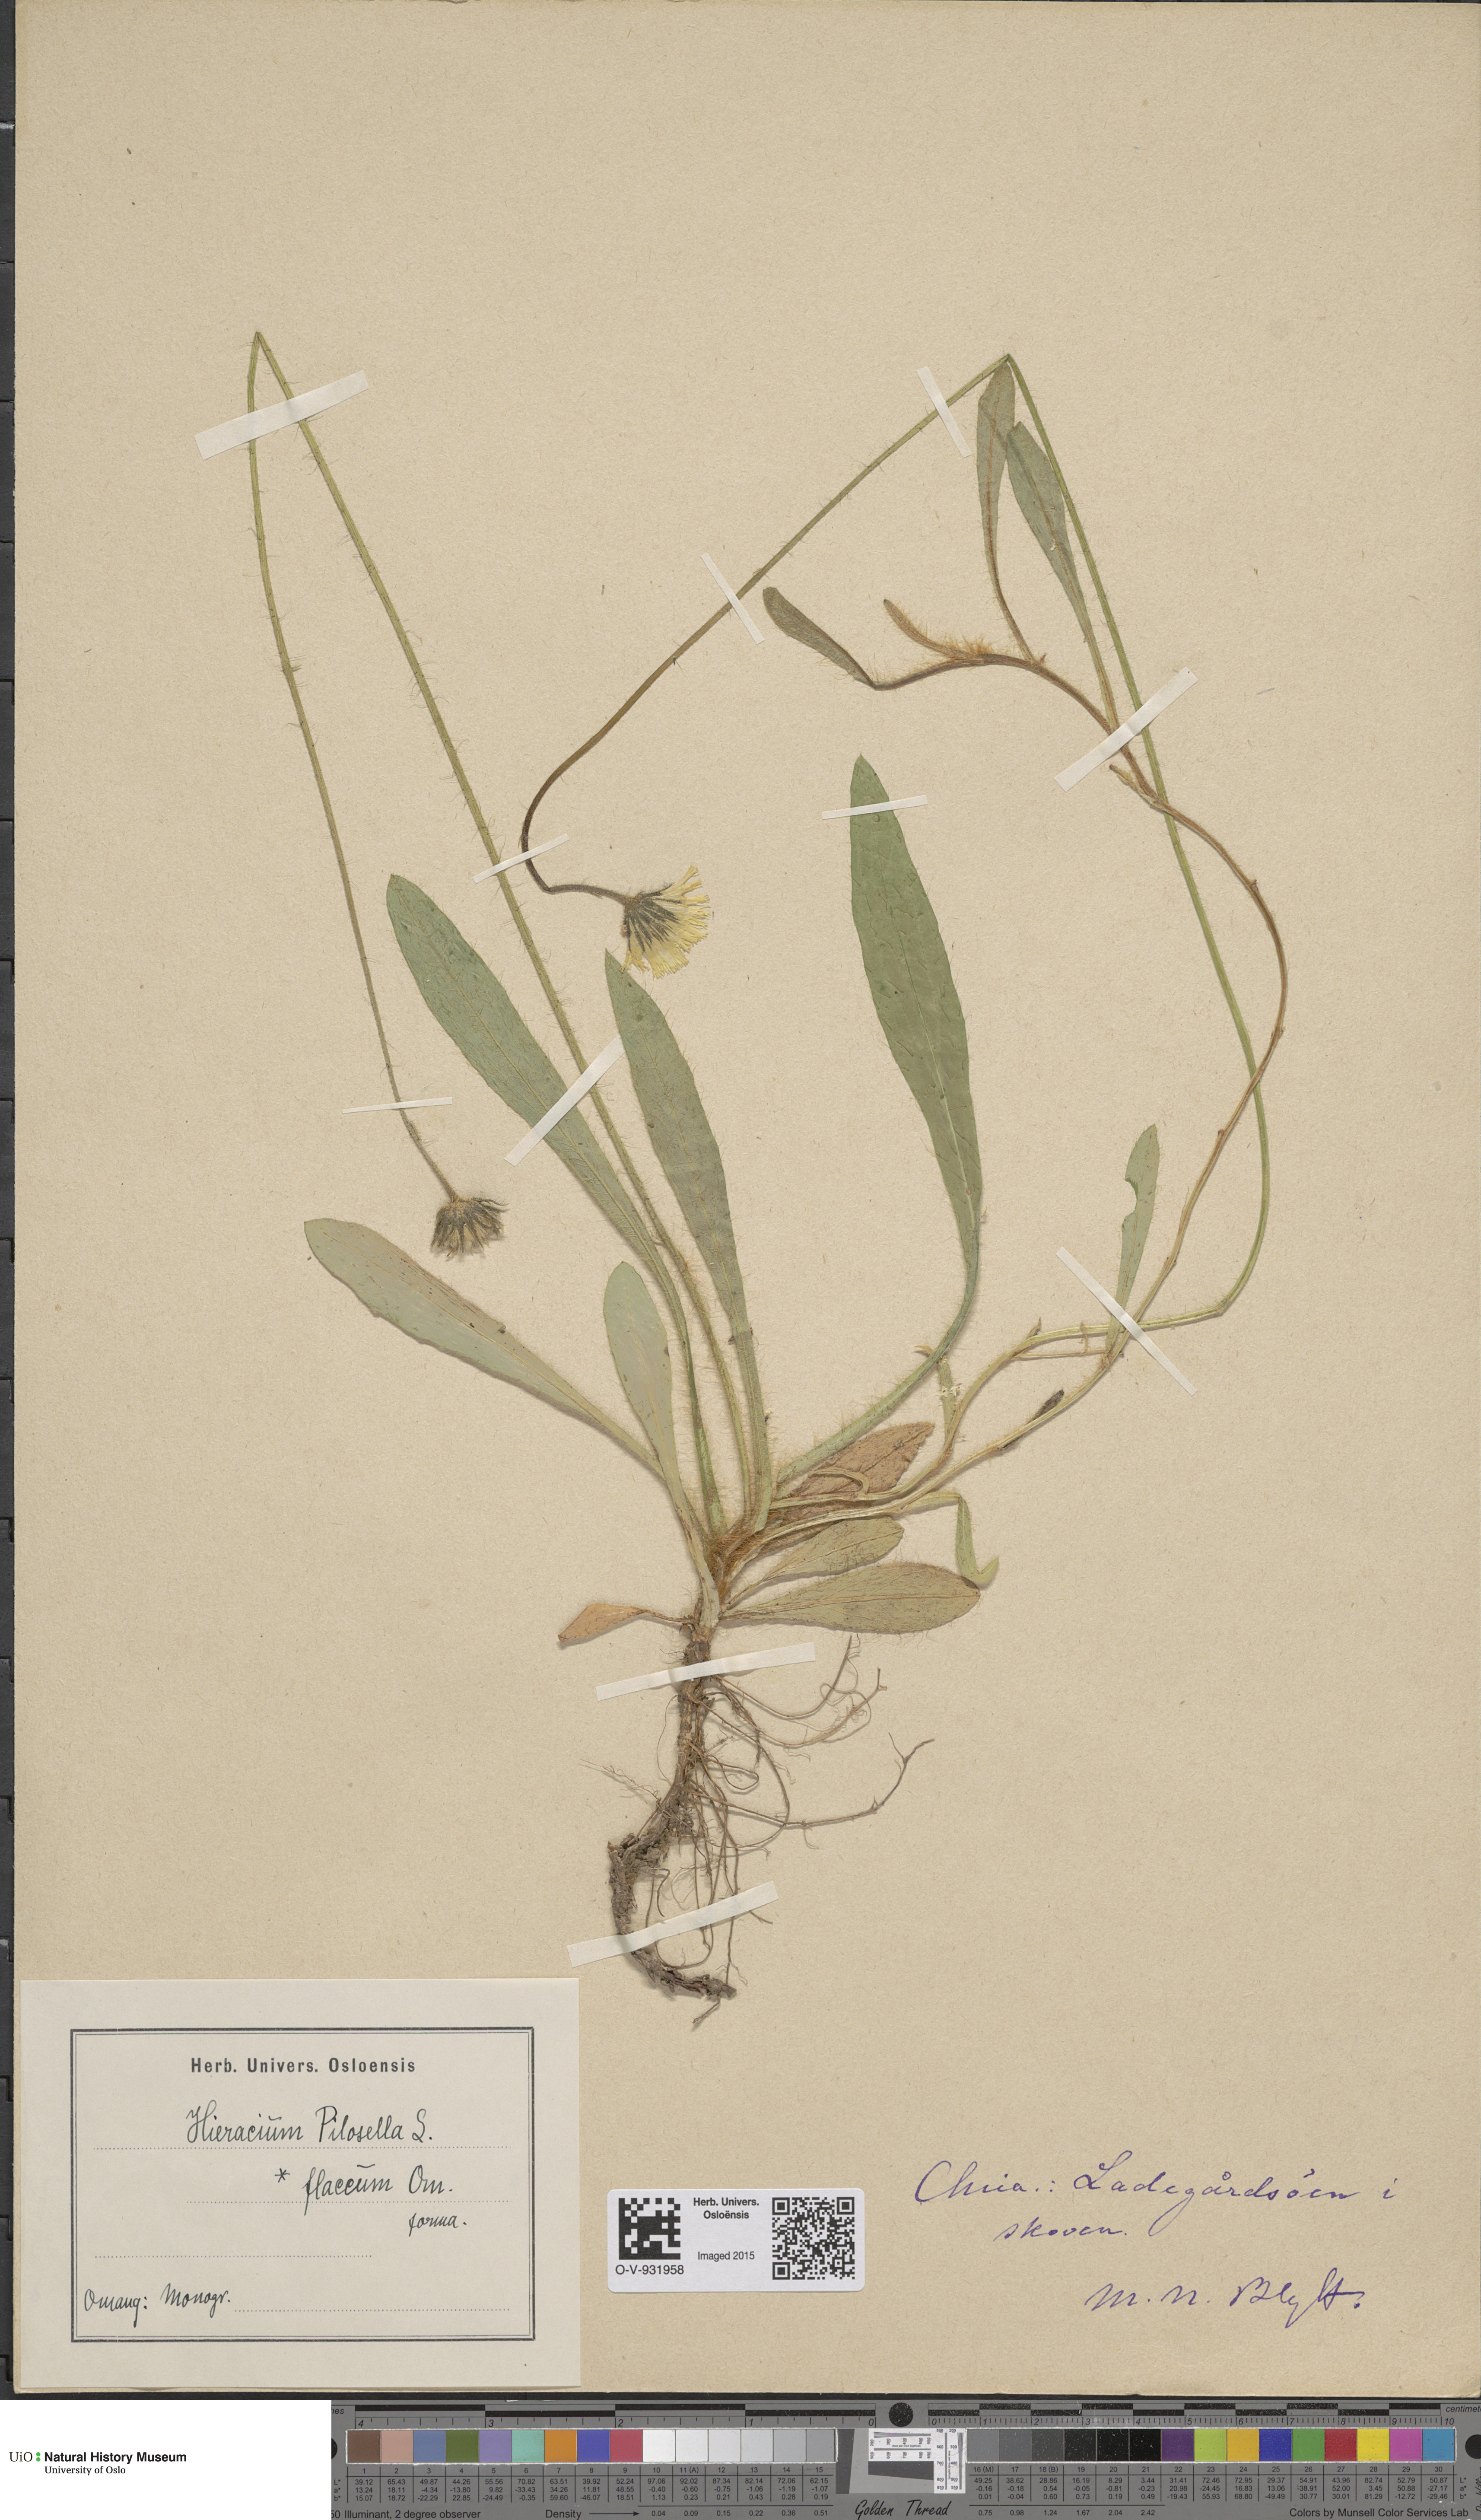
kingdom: Plantae
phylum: Tracheophyta
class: Magnoliopsida
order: Asterales
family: Asteraceae
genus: Pilosella
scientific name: Pilosella officinarum
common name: Mouse-ear hawkweed
